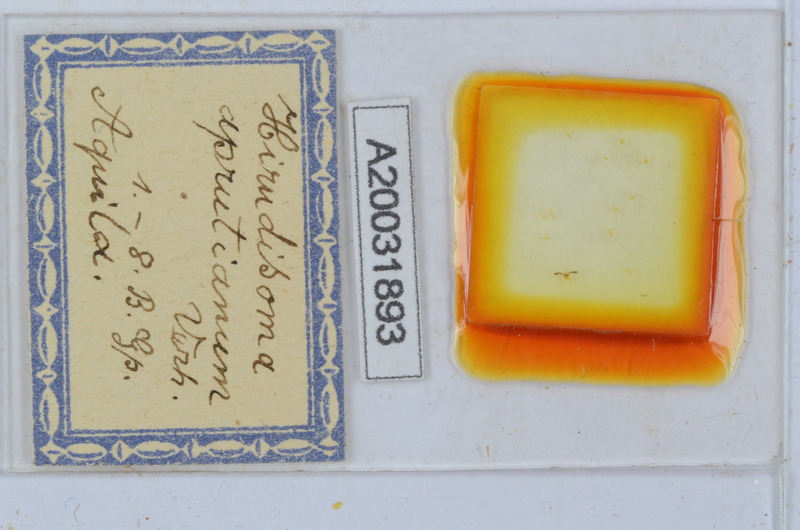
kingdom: Animalia
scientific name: Animalia
